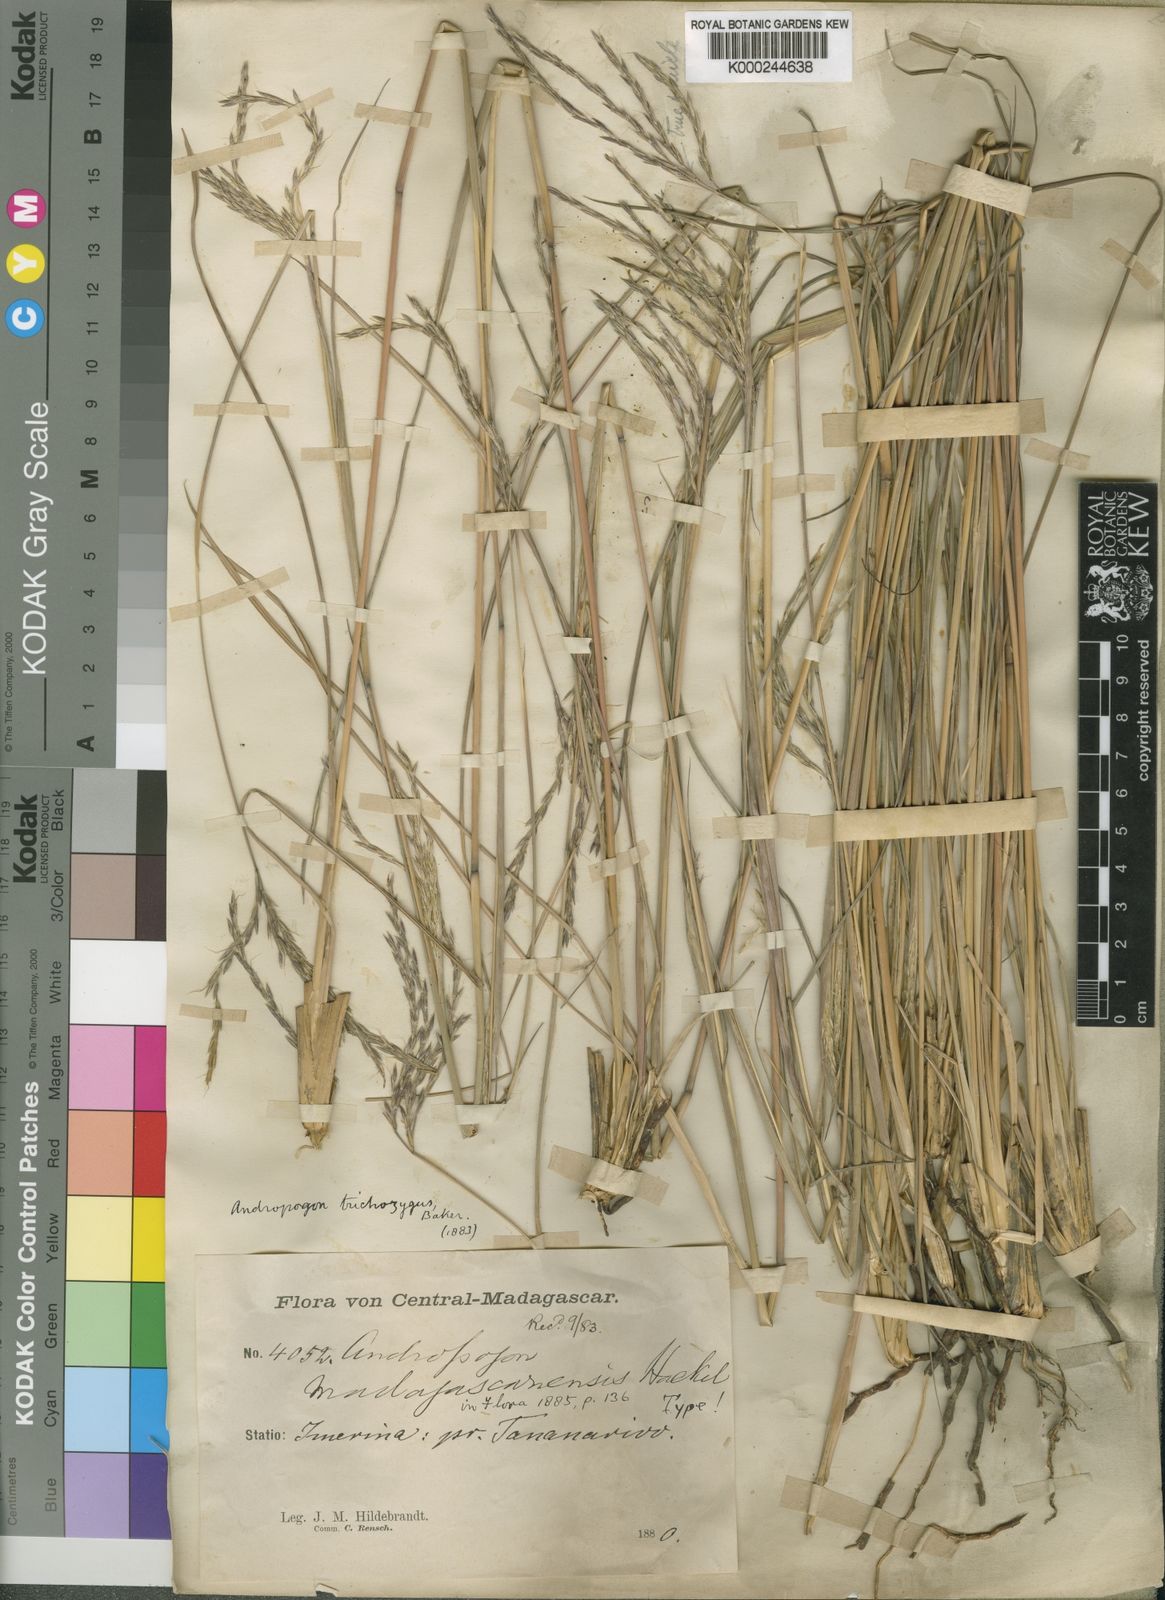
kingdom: Plantae
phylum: Tracheophyta
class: Liliopsida
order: Poales
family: Poaceae
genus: Andropogon
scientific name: Andropogon trichozygus
